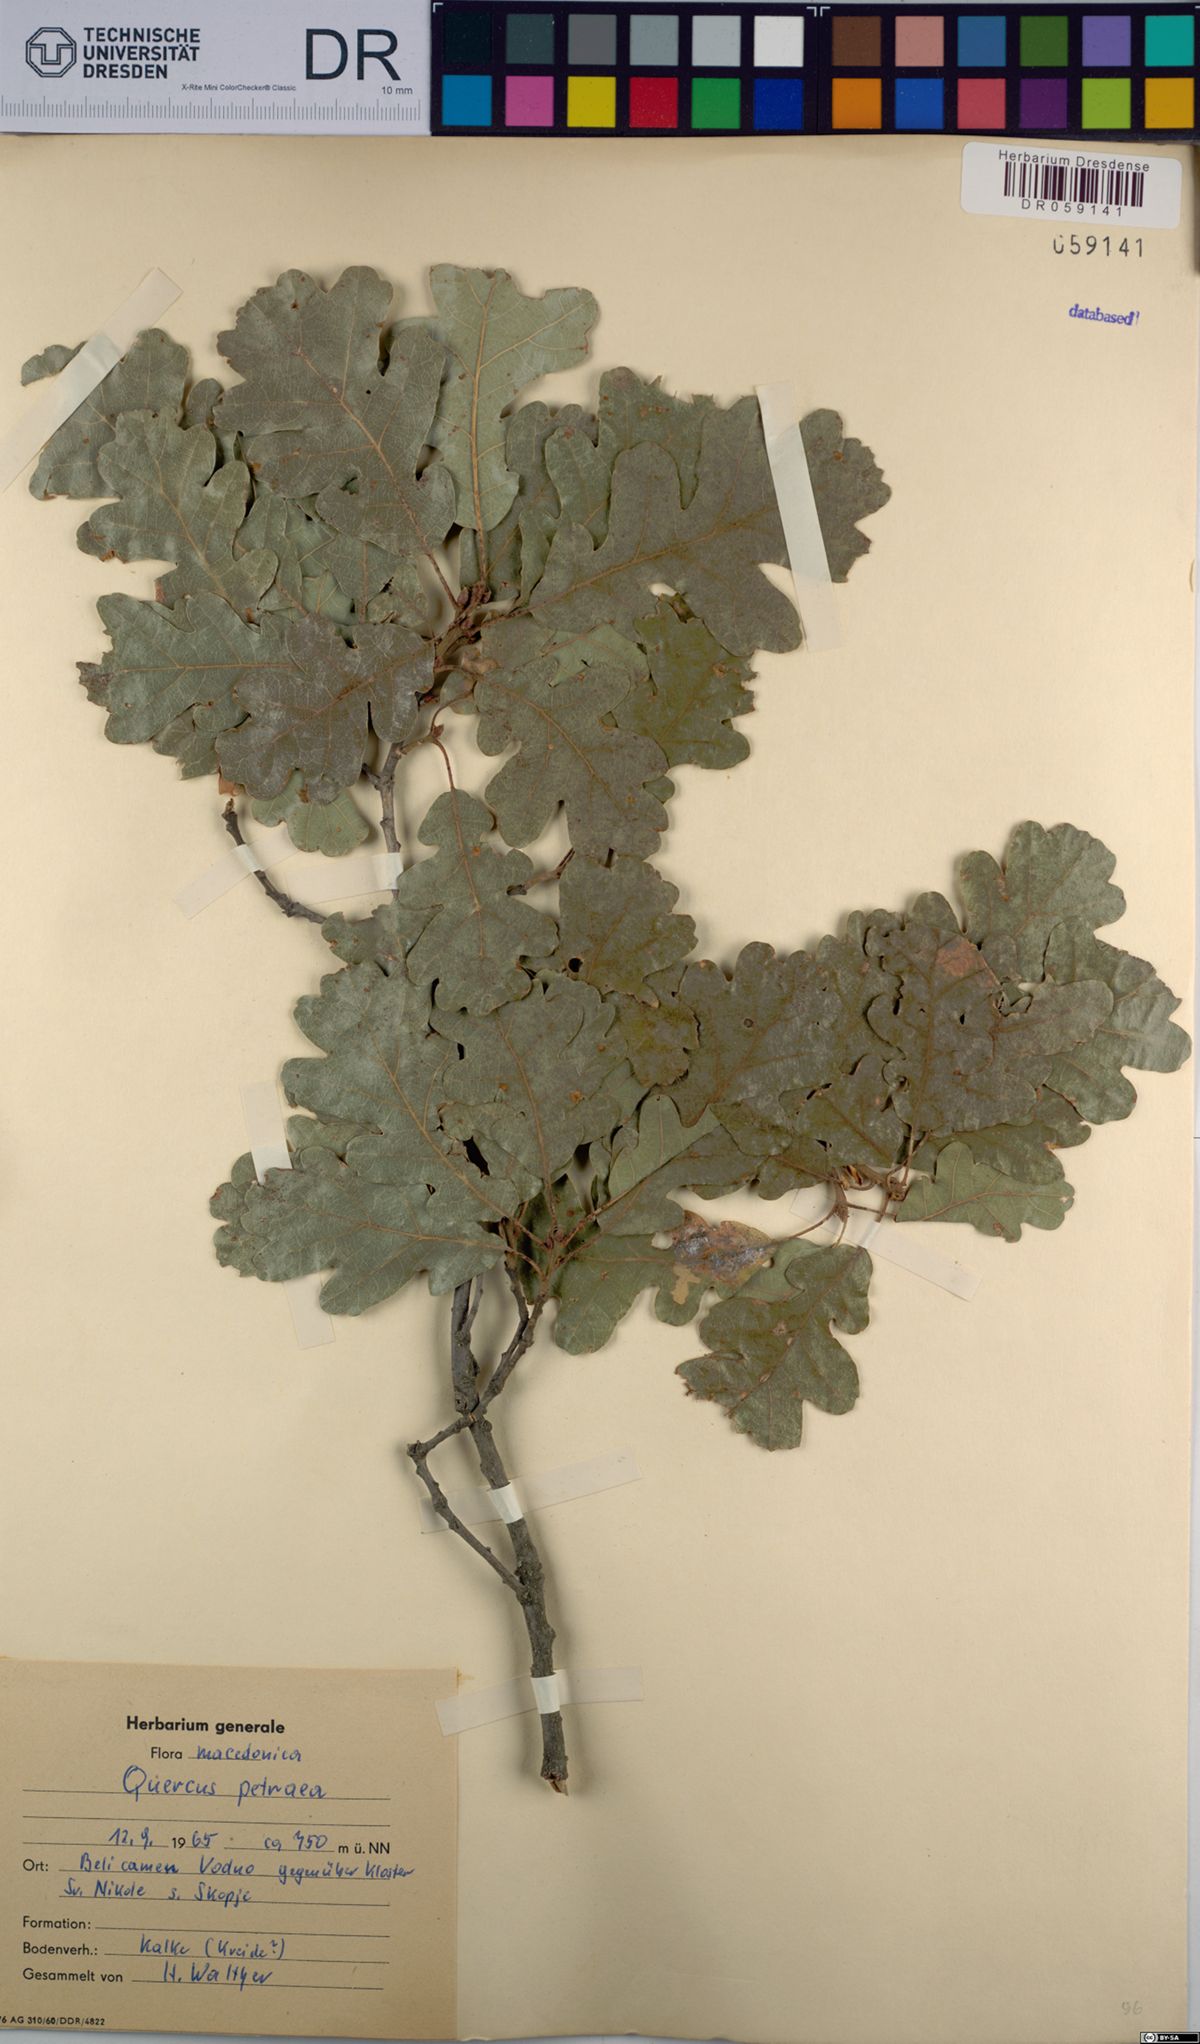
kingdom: Plantae
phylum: Tracheophyta
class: Magnoliopsida
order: Fagales
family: Fagaceae
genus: Quercus
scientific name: Quercus petraea
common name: Sessile oak
